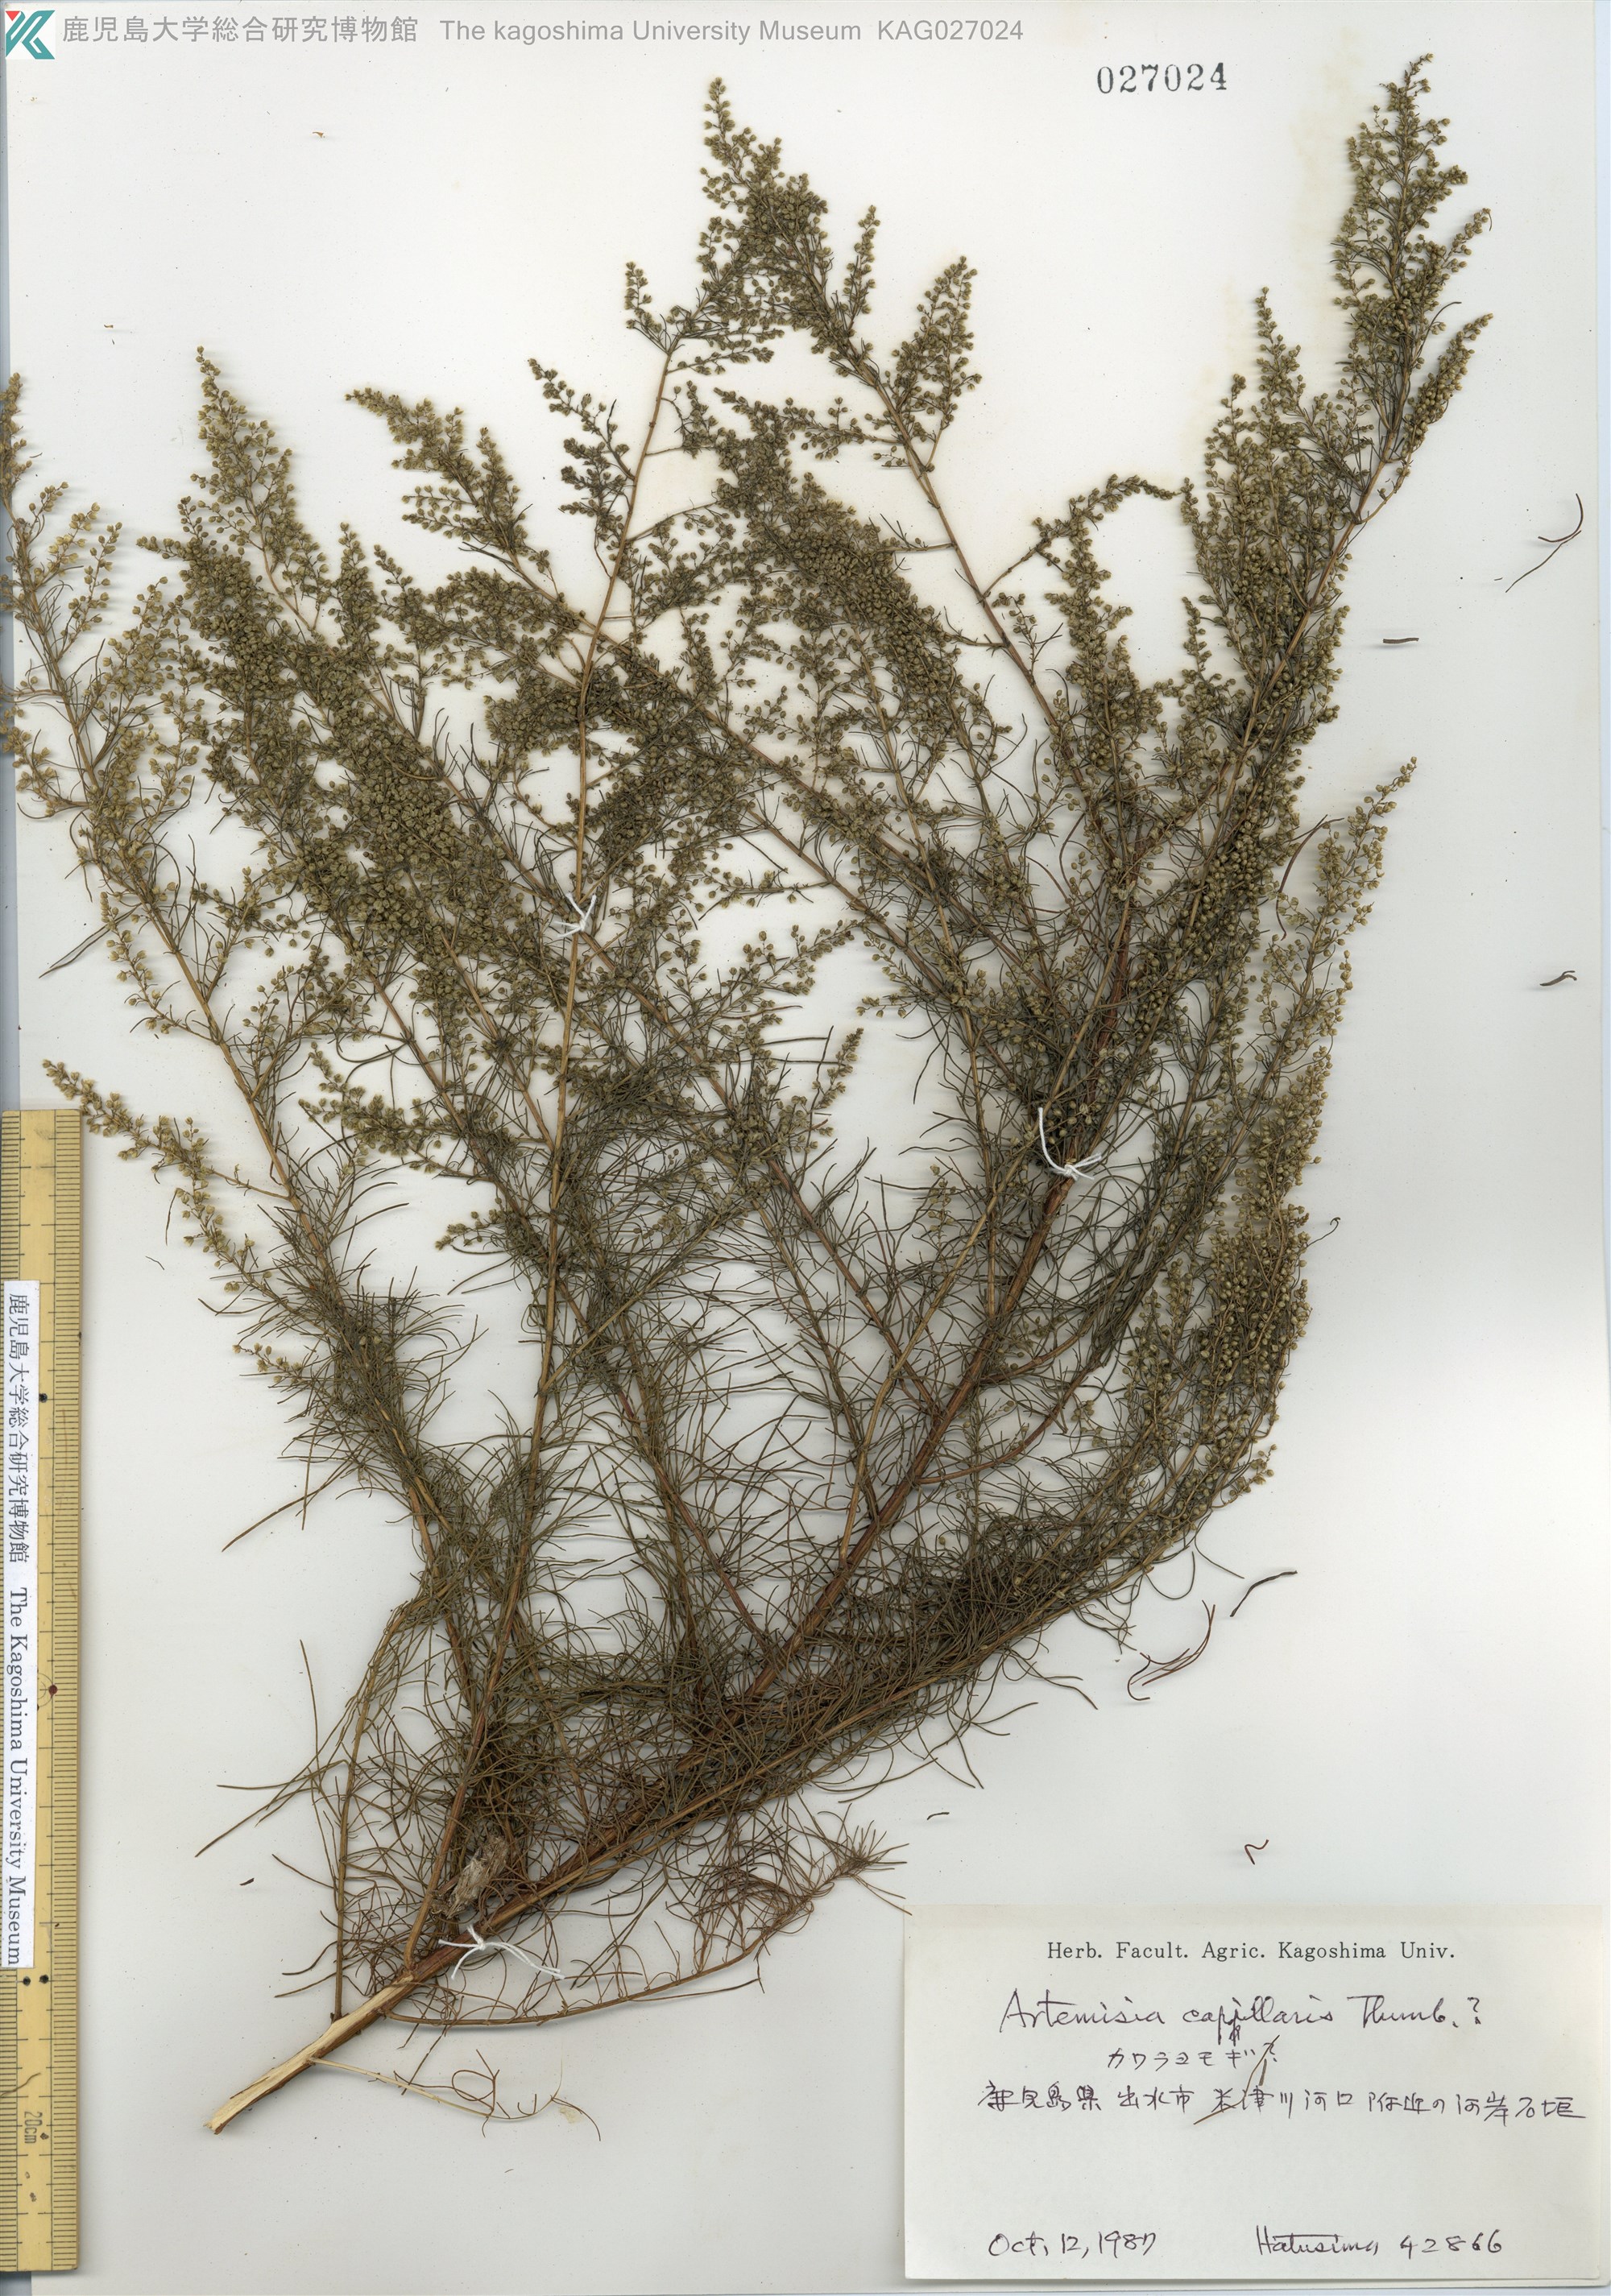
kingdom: Plantae
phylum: Tracheophyta
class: Magnoliopsida
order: Asterales
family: Asteraceae
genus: Artemisia
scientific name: Artemisia capillaris
